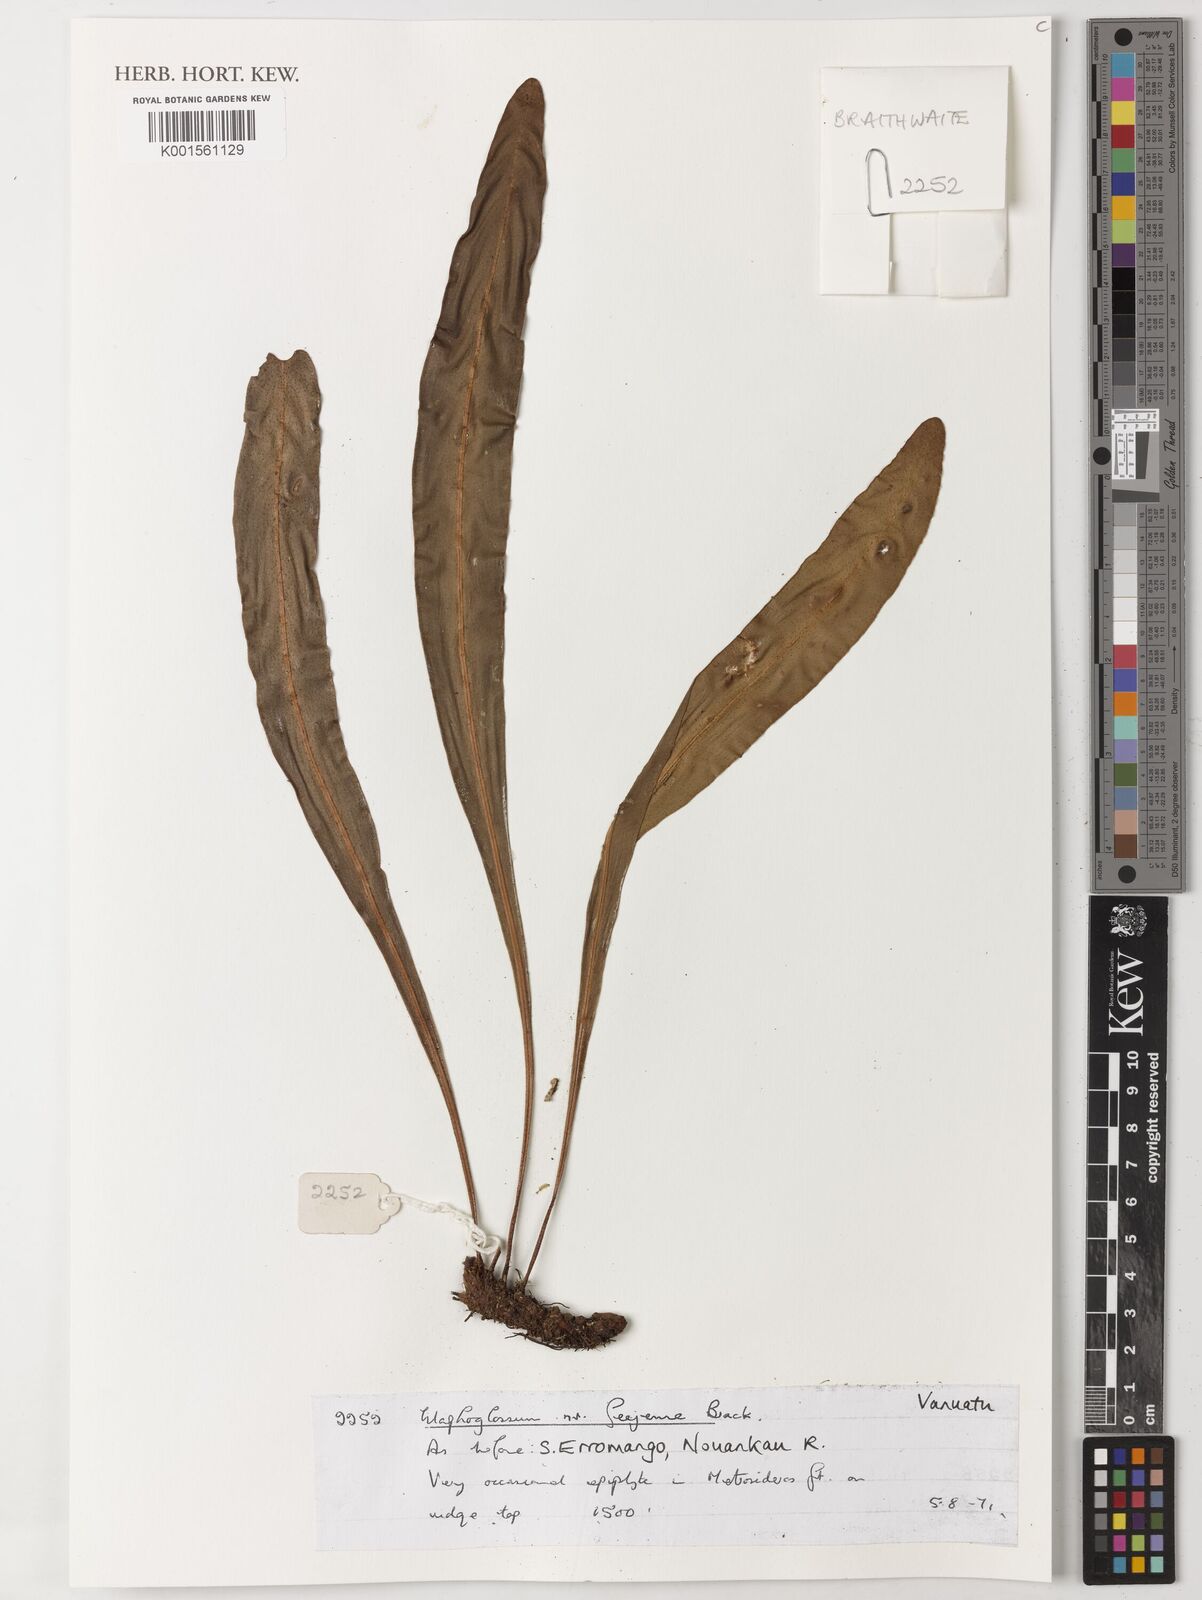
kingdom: Plantae
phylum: Tracheophyta
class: Polypodiopsida
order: Polypodiales
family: Dryopteridaceae
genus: Elaphoglossum
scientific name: Elaphoglossum
